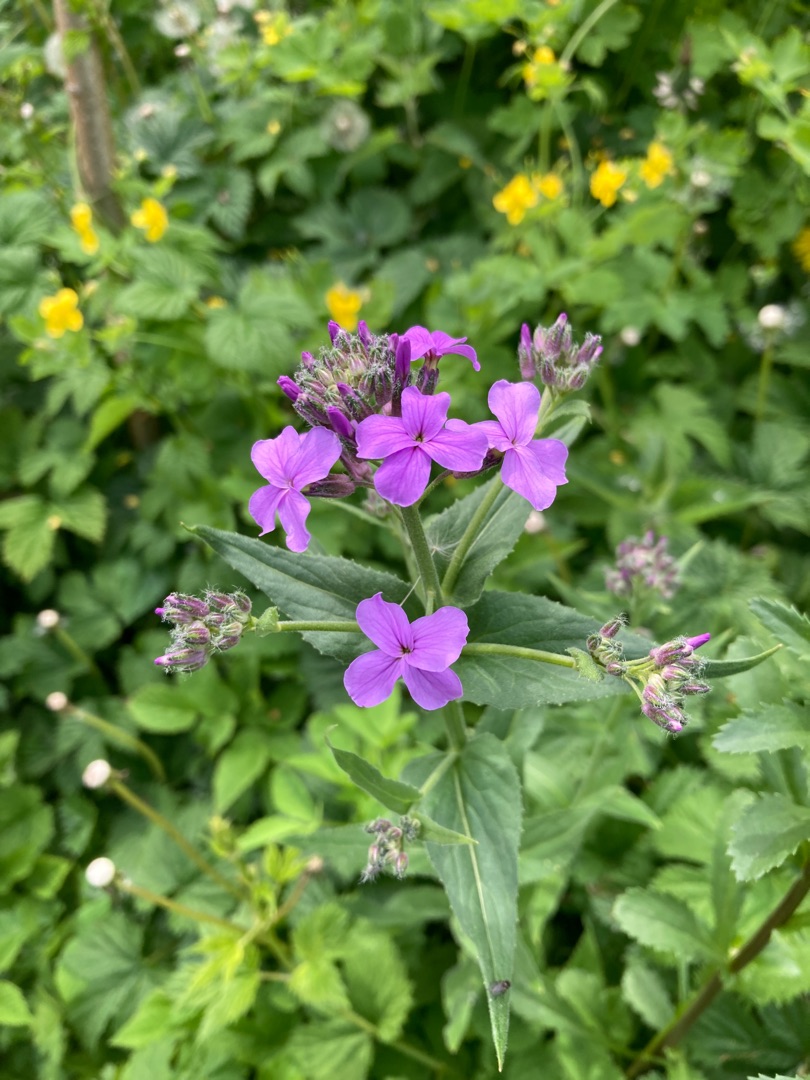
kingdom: Plantae
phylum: Tracheophyta
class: Magnoliopsida
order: Brassicales
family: Brassicaceae
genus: Hesperis
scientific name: Hesperis matronalis
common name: Aftenstjerne
